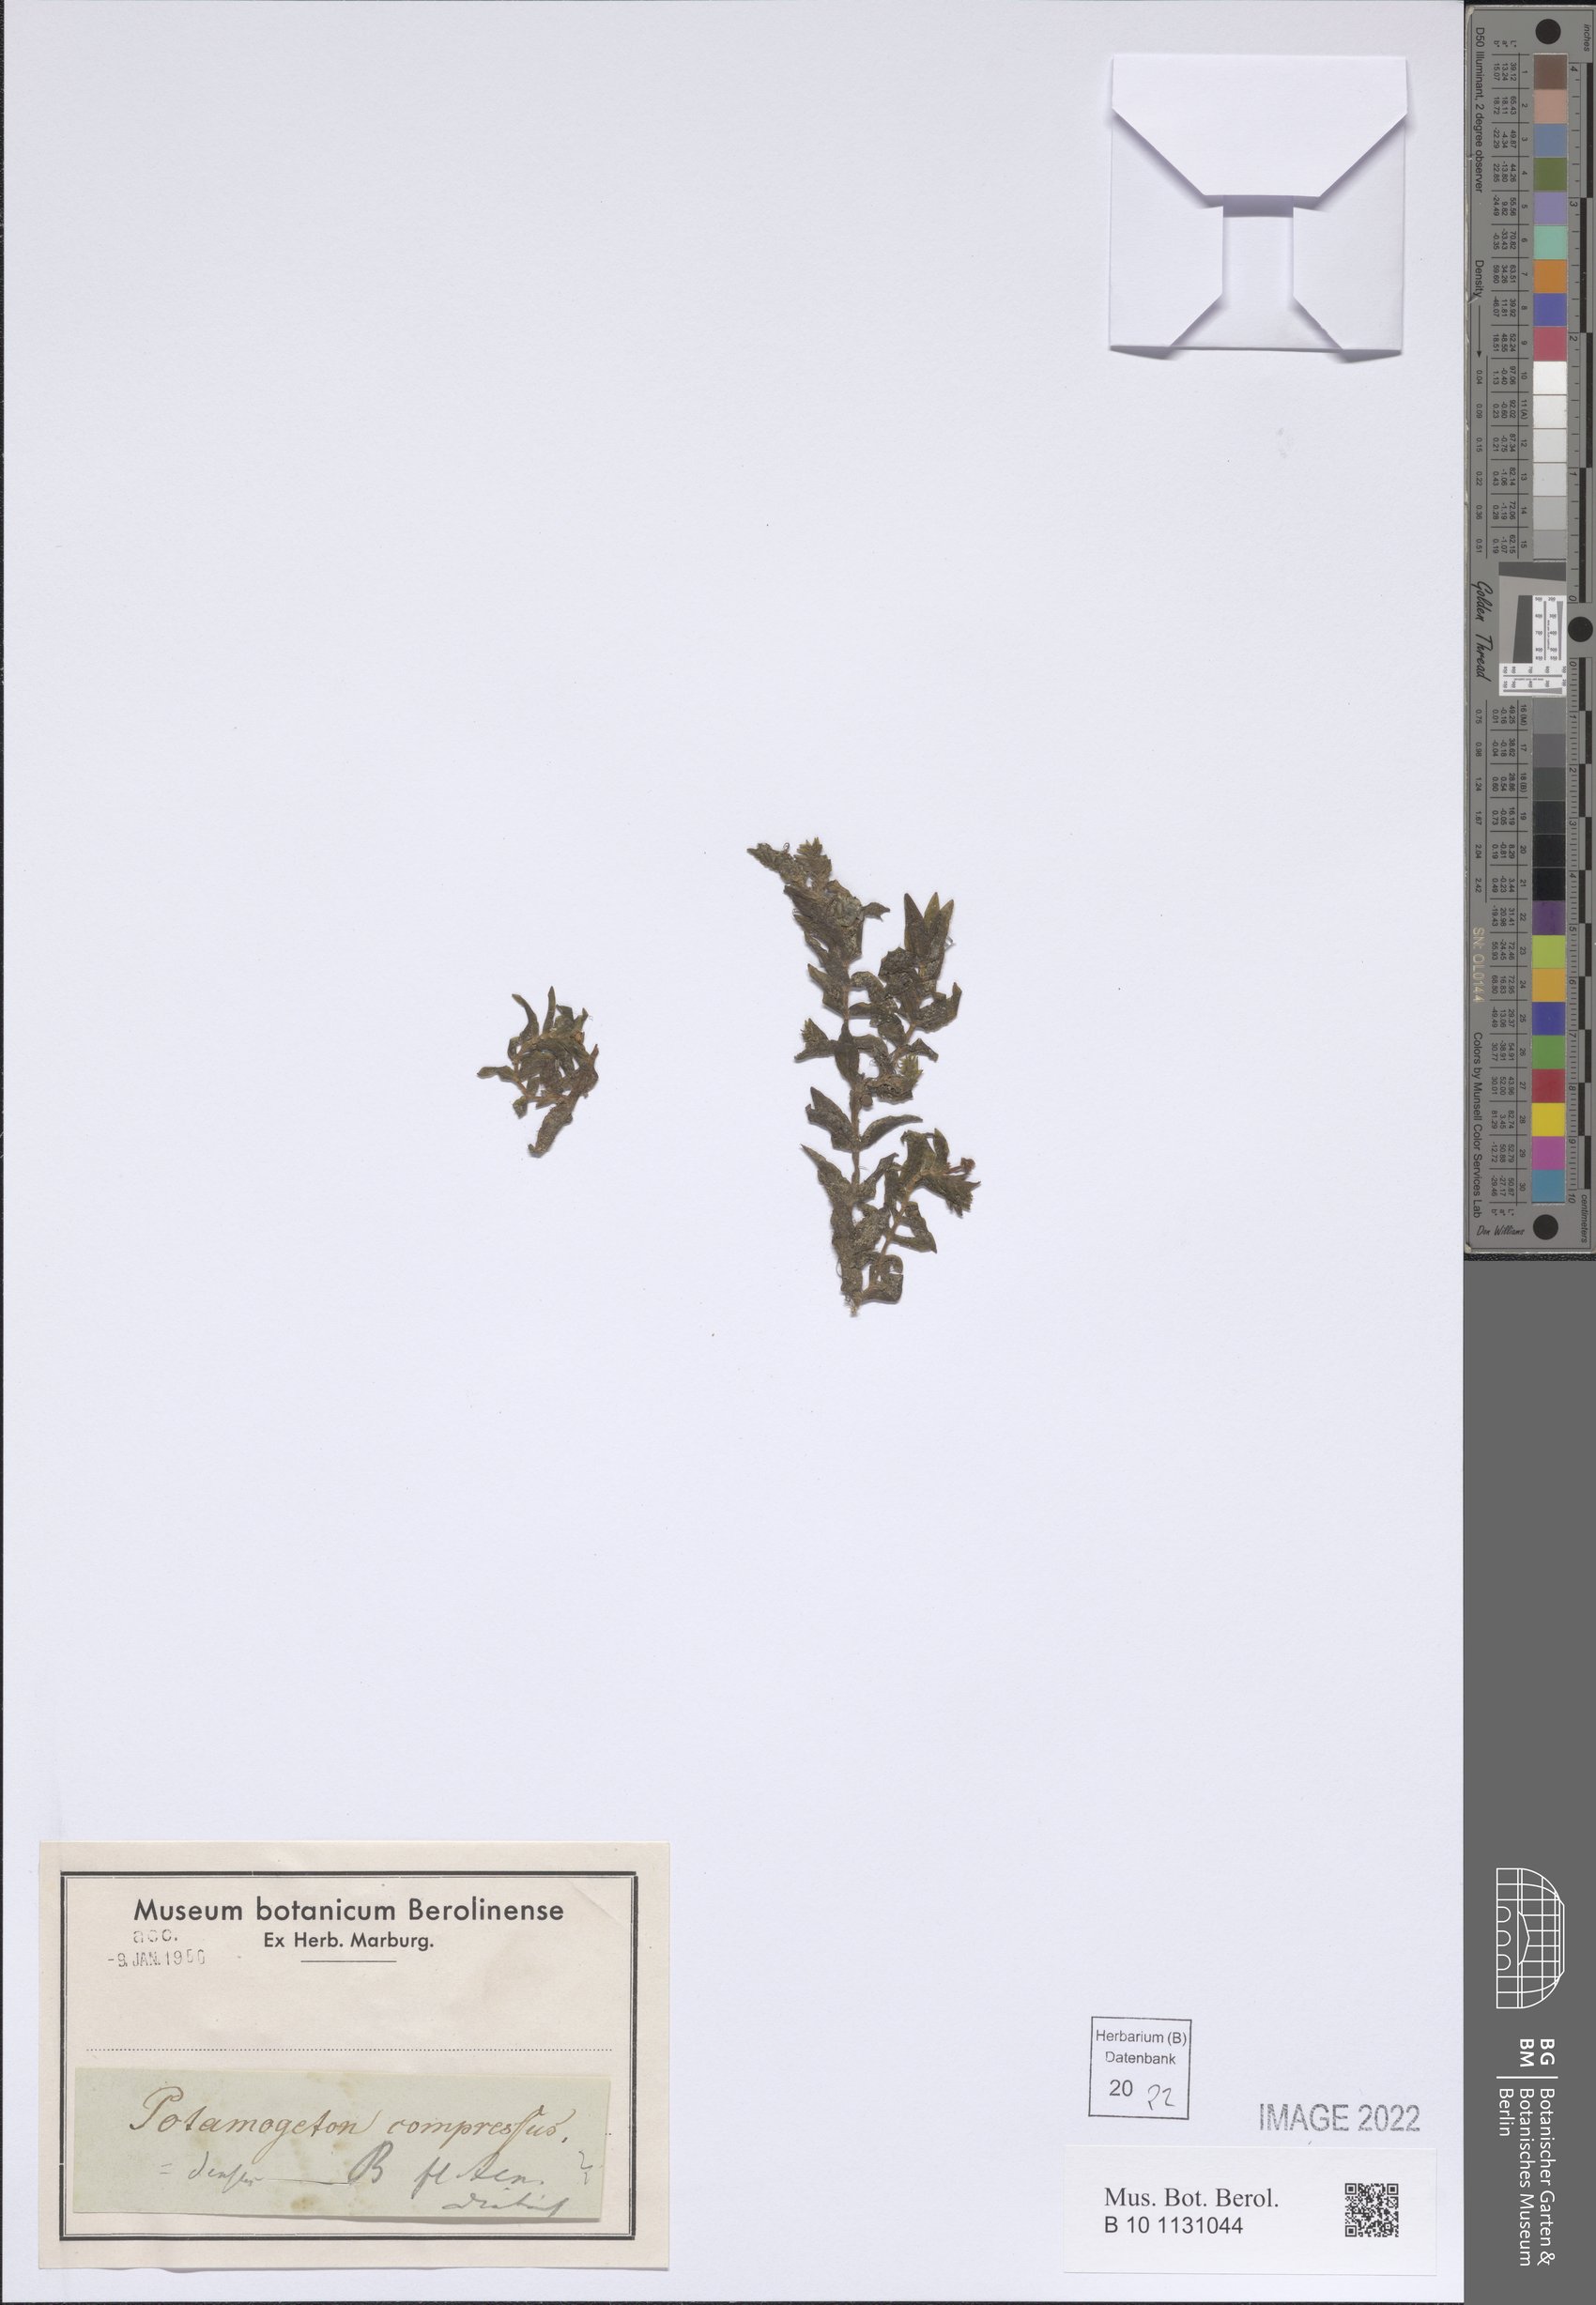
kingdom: Plantae
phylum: Tracheophyta
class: Liliopsida
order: Alismatales
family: Potamogetonaceae
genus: Potamogeton
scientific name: Potamogeton compressus
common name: Grass-wrack pondweed
